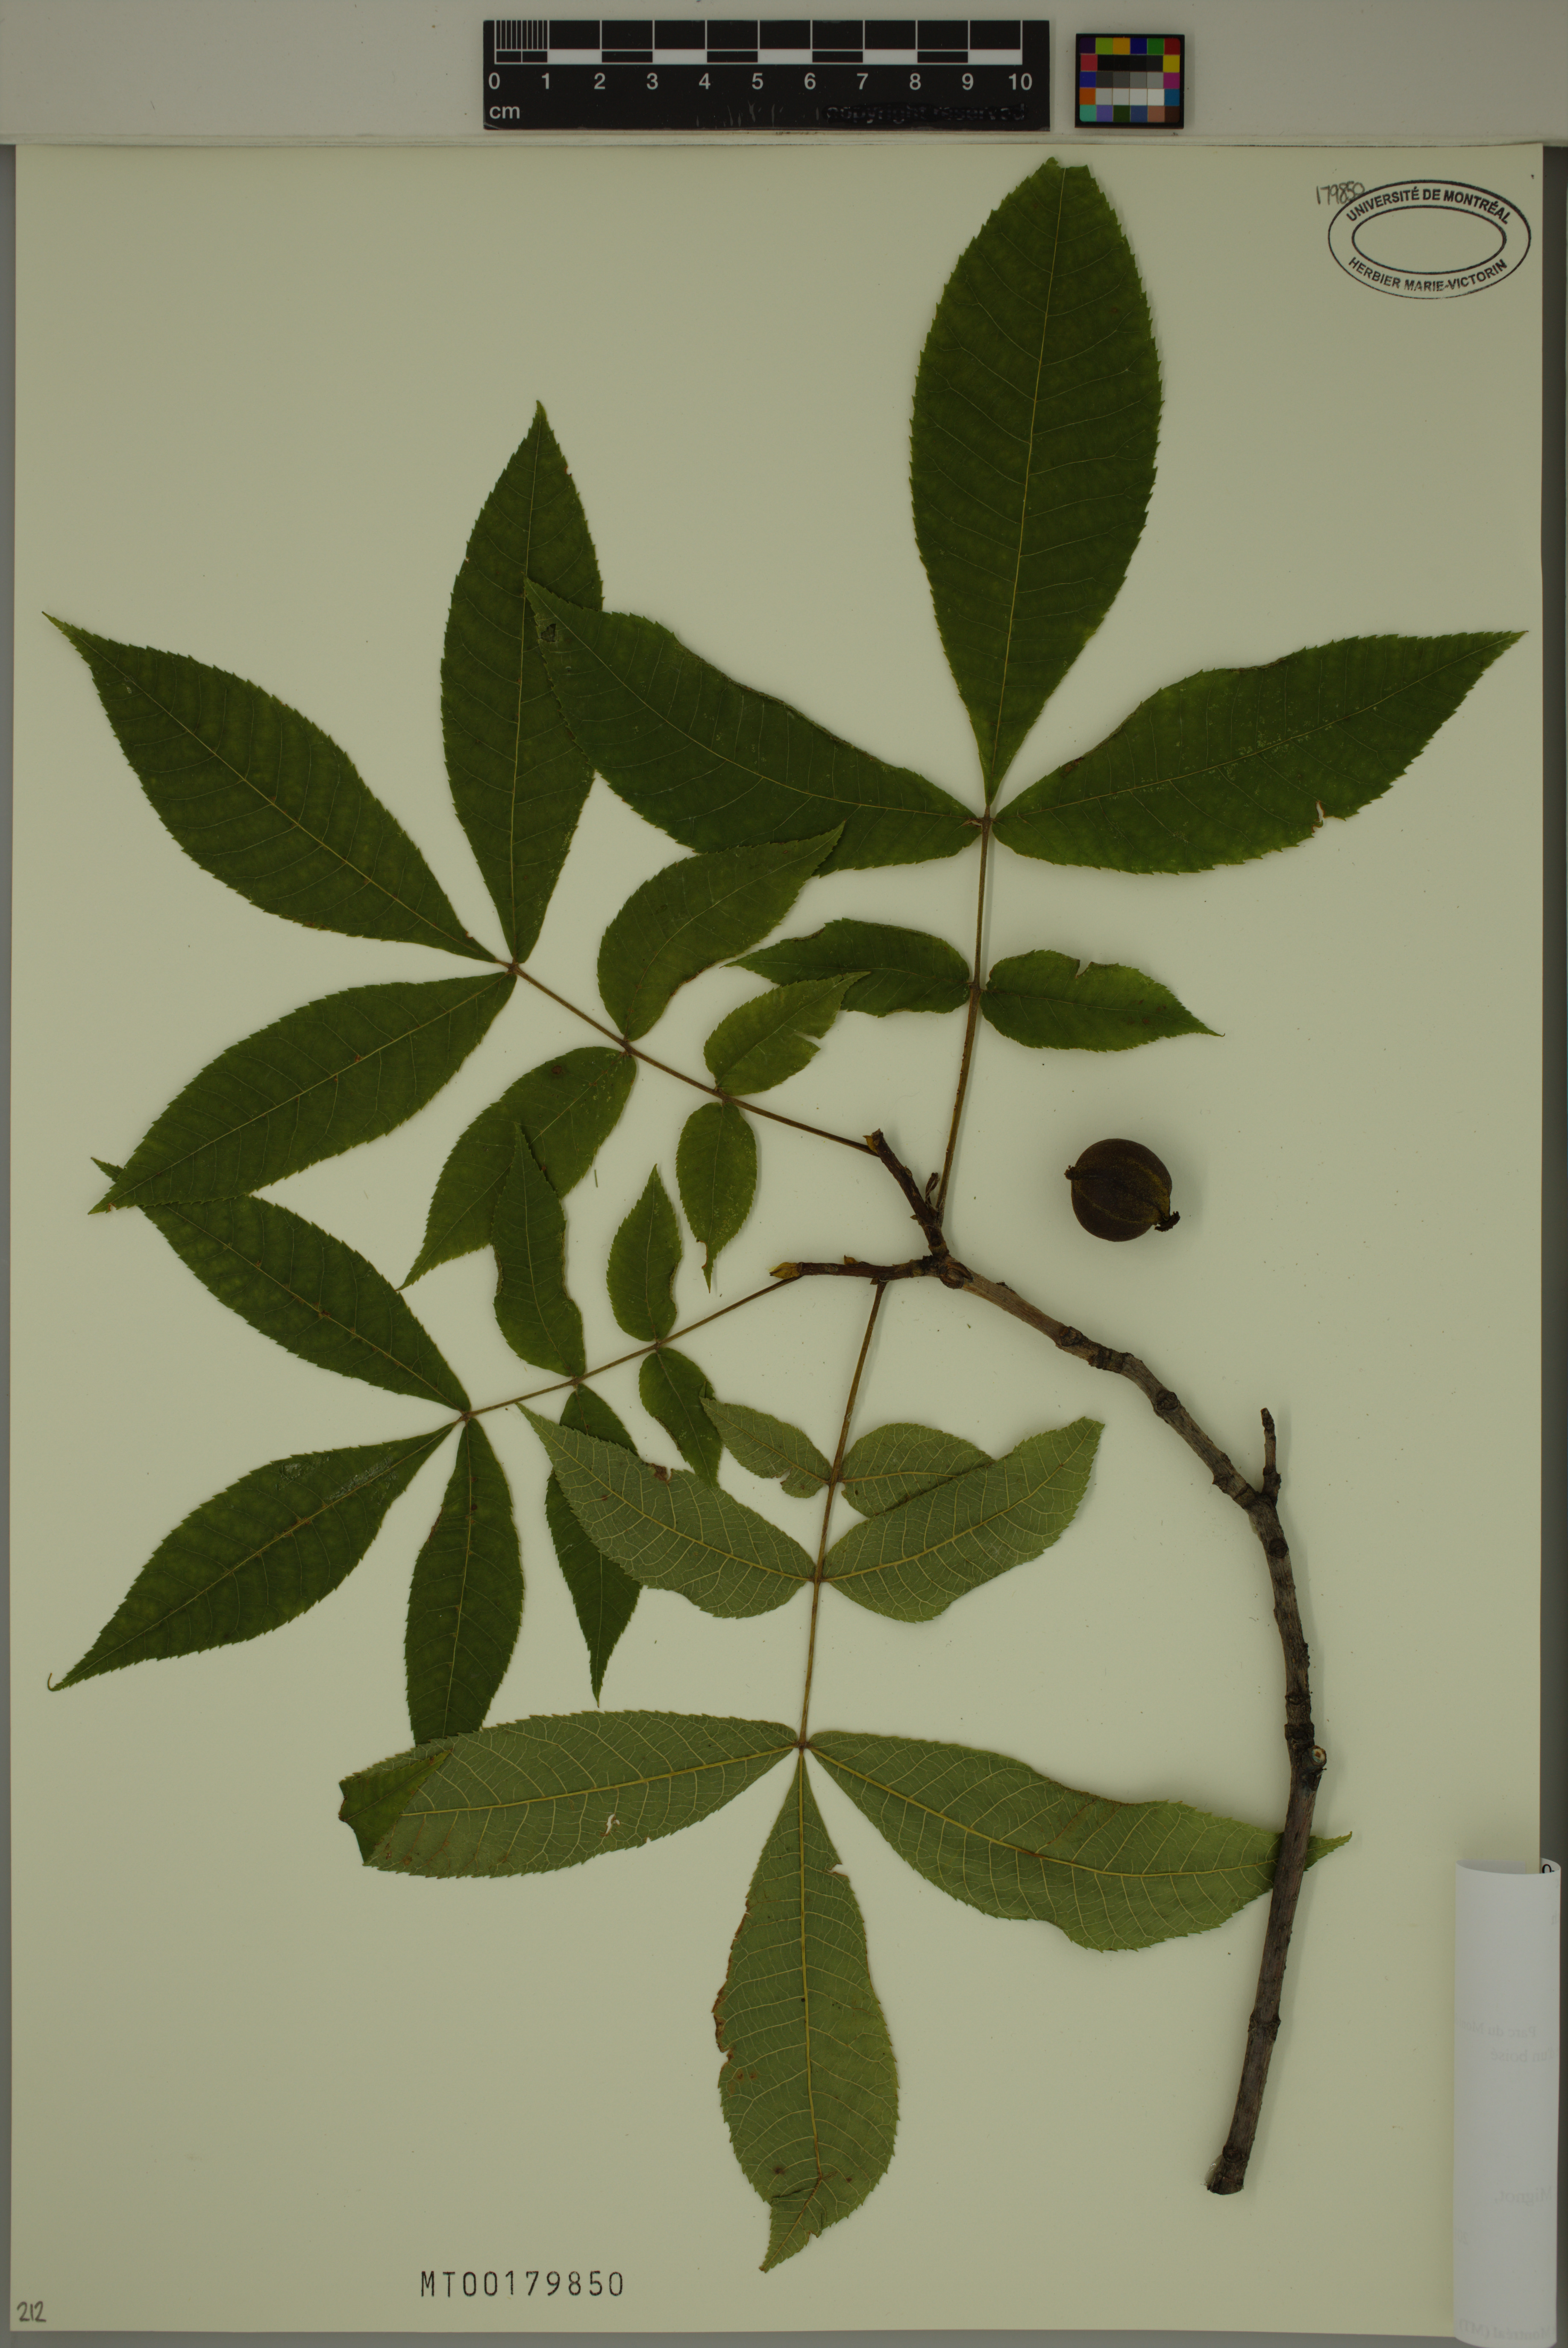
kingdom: Plantae
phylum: Tracheophyta
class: Magnoliopsida
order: Fagales
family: Juglandaceae
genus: Carya
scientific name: Carya cordiformis
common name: Bitternut hickory
